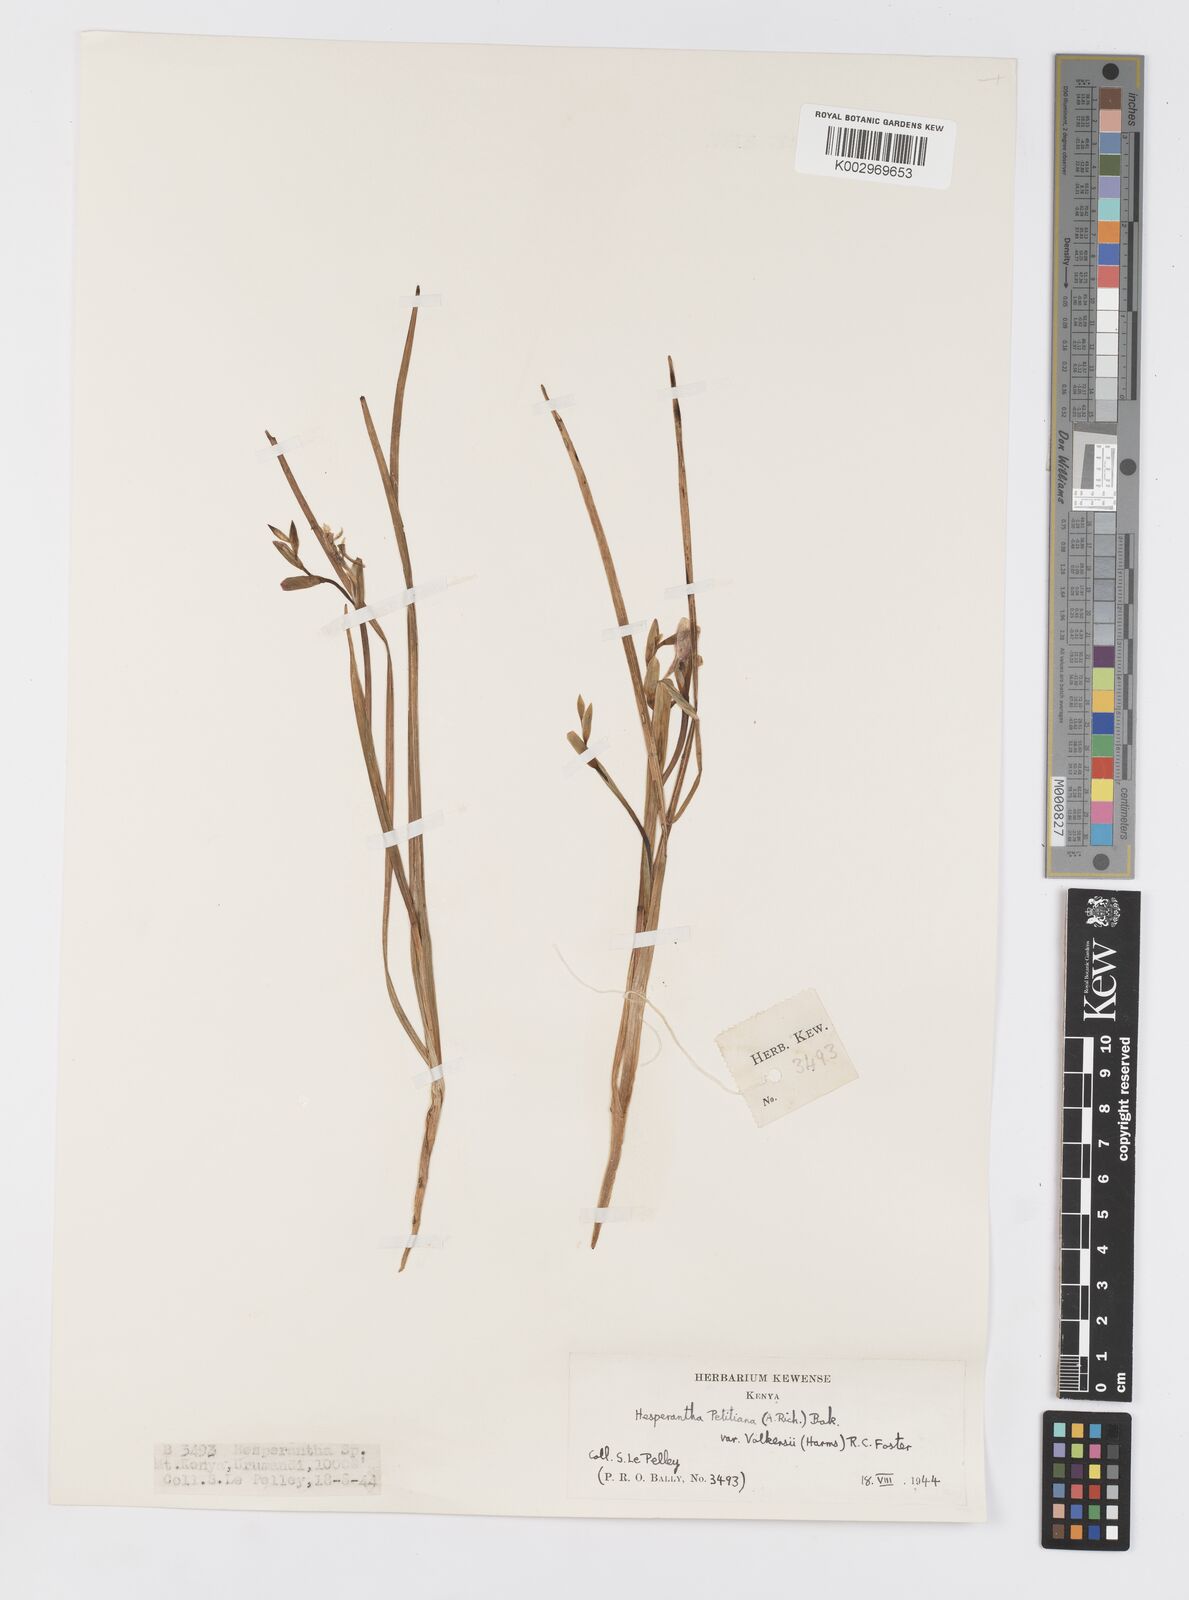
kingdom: Plantae
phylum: Tracheophyta
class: Liliopsida
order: Asparagales
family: Iridaceae
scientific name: Iridaceae
